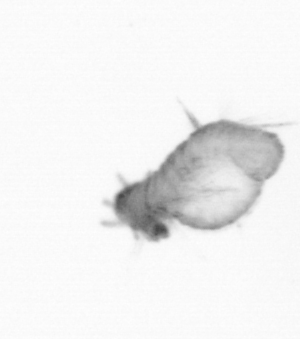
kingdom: Animalia
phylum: Annelida
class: Polychaeta
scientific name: Polychaeta
